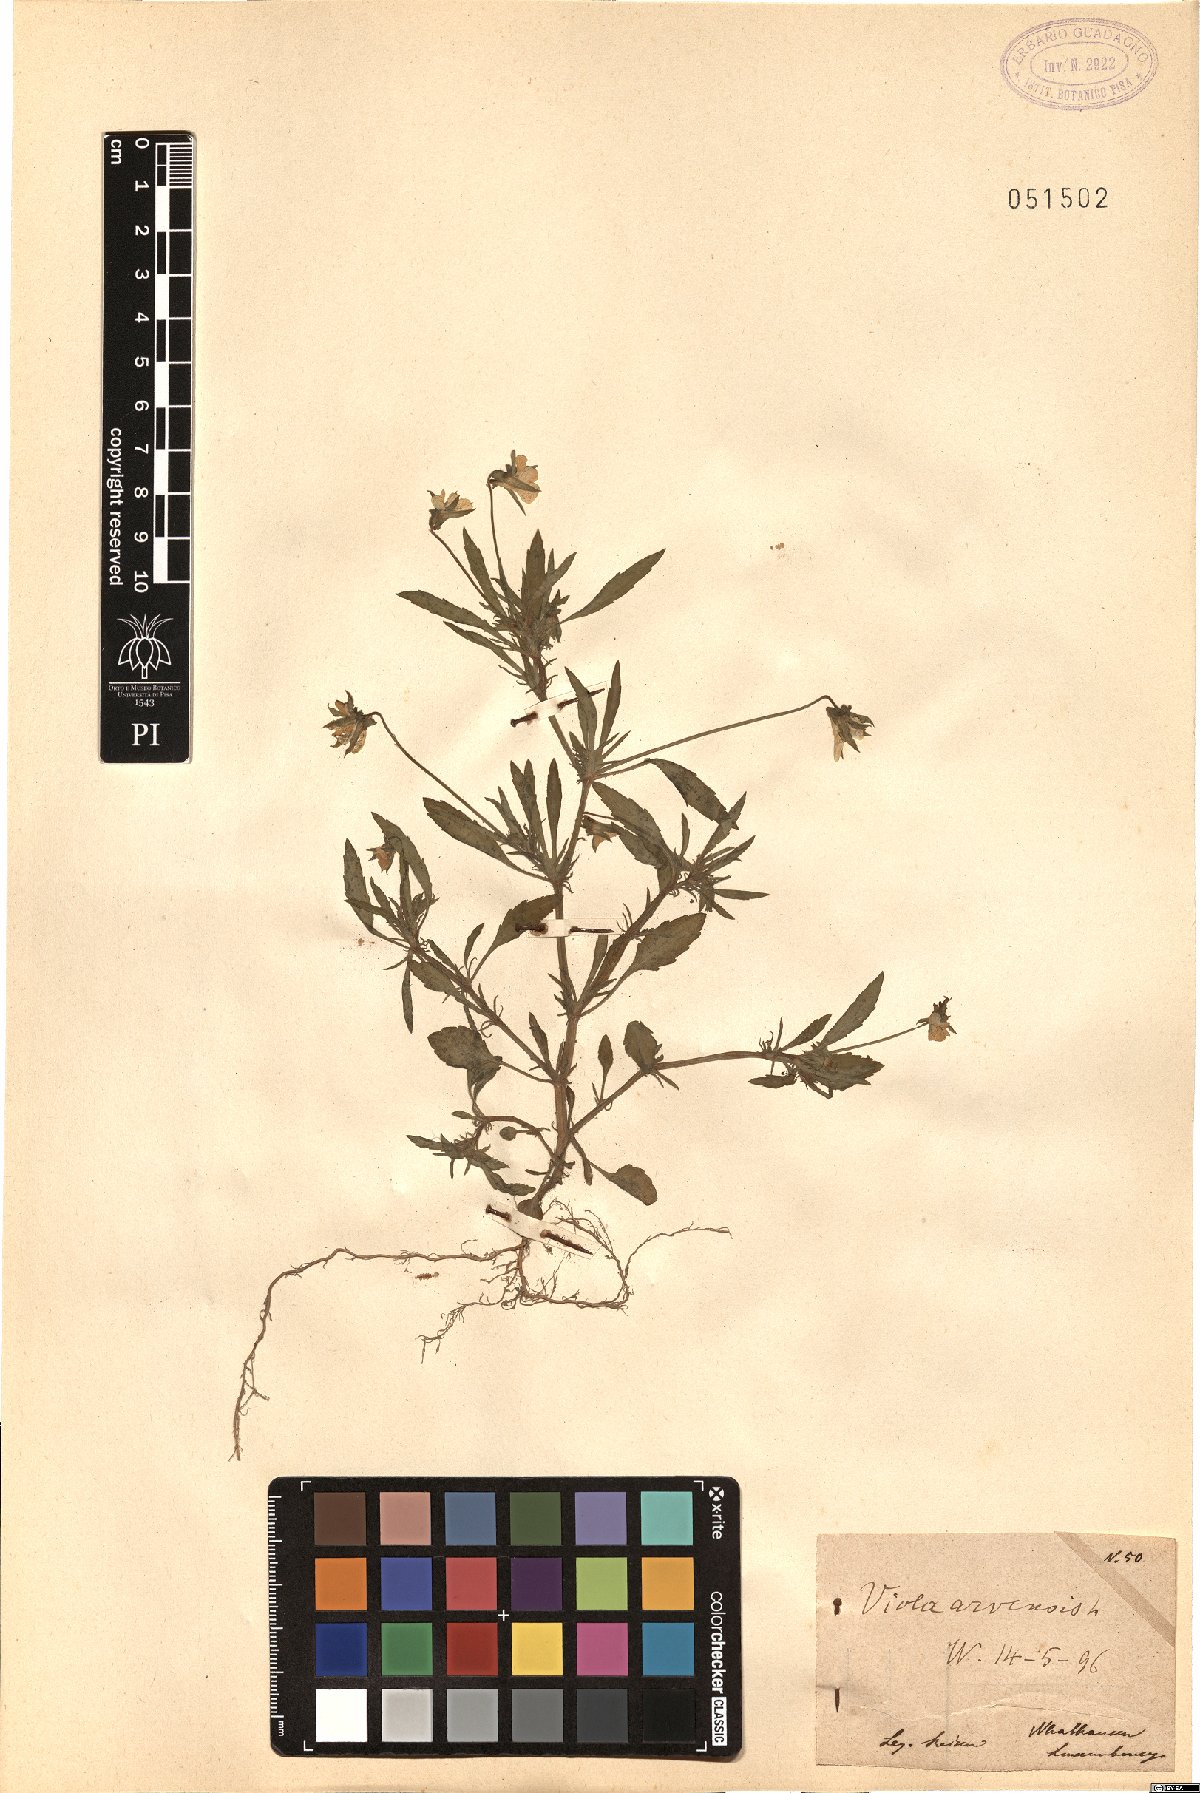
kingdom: Plantae
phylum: Tracheophyta
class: Magnoliopsida
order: Malpighiales
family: Violaceae
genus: Viola
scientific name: Viola arvensis
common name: Field pansy
